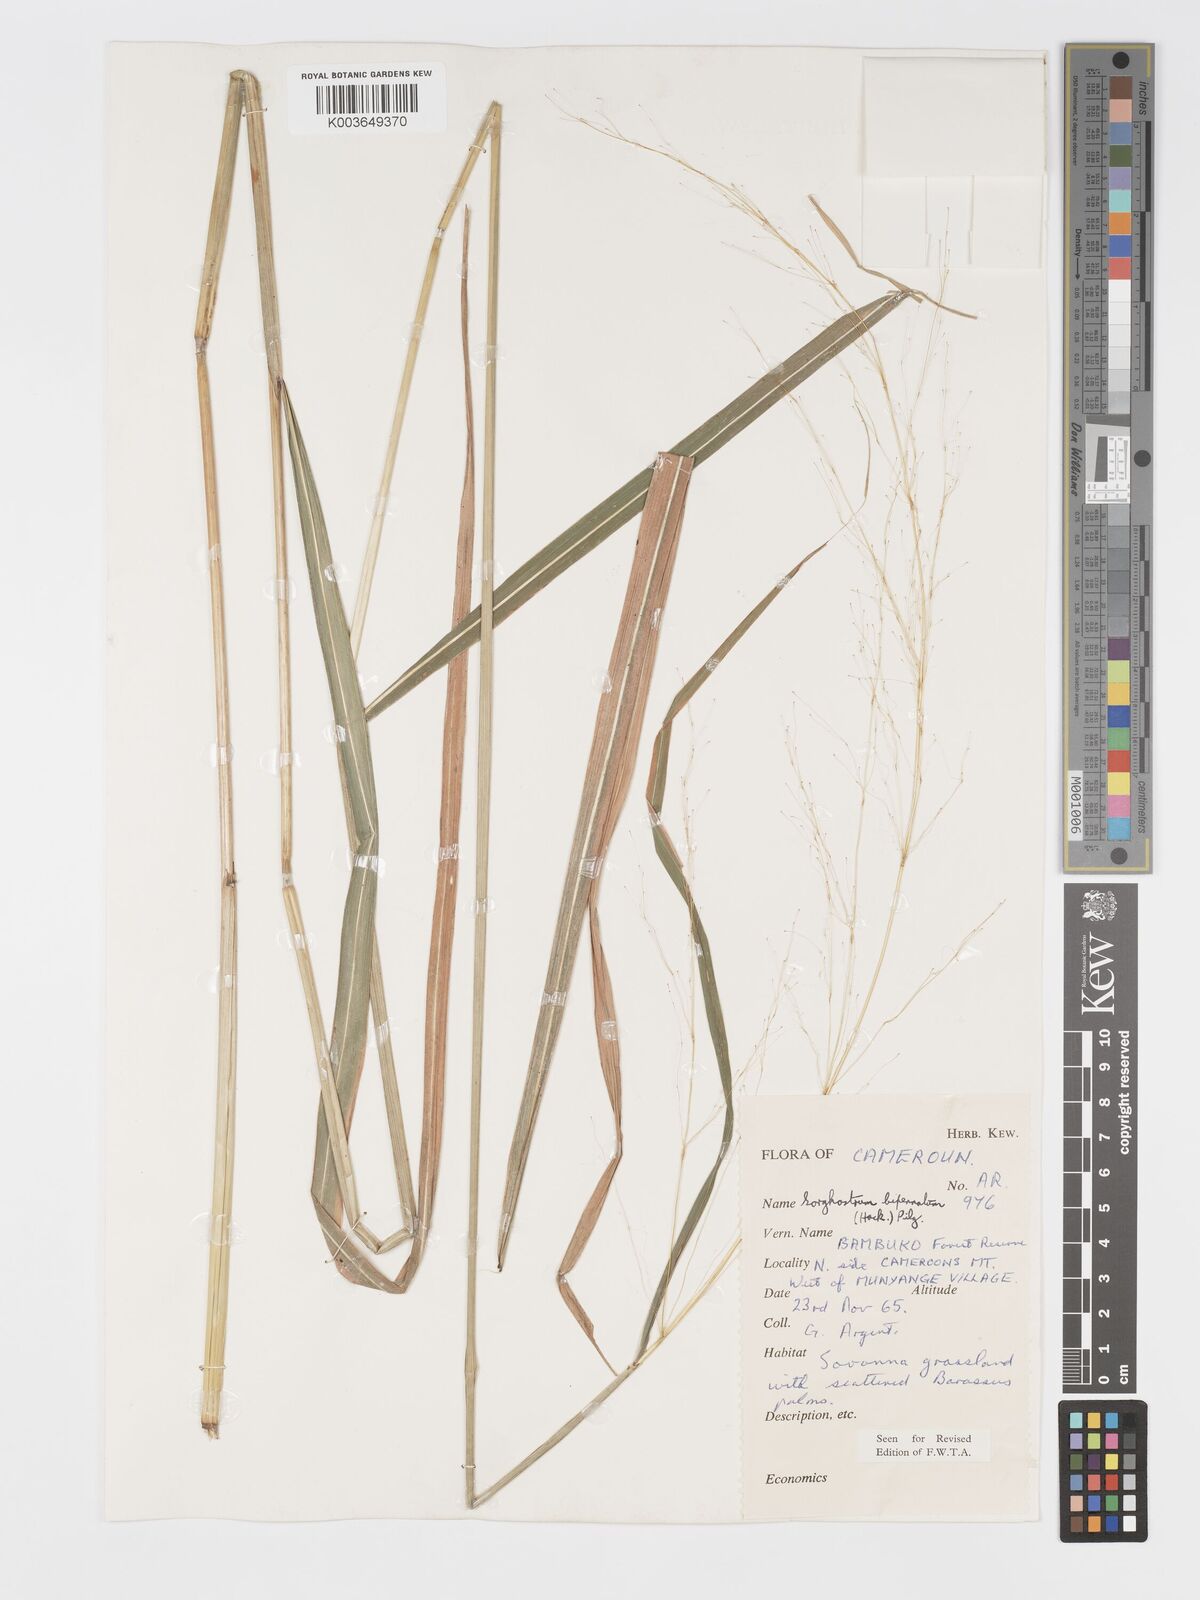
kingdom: Plantae
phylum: Tracheophyta
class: Liliopsida
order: Poales
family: Poaceae
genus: Sorghastrum
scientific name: Sorghastrum incompletum
